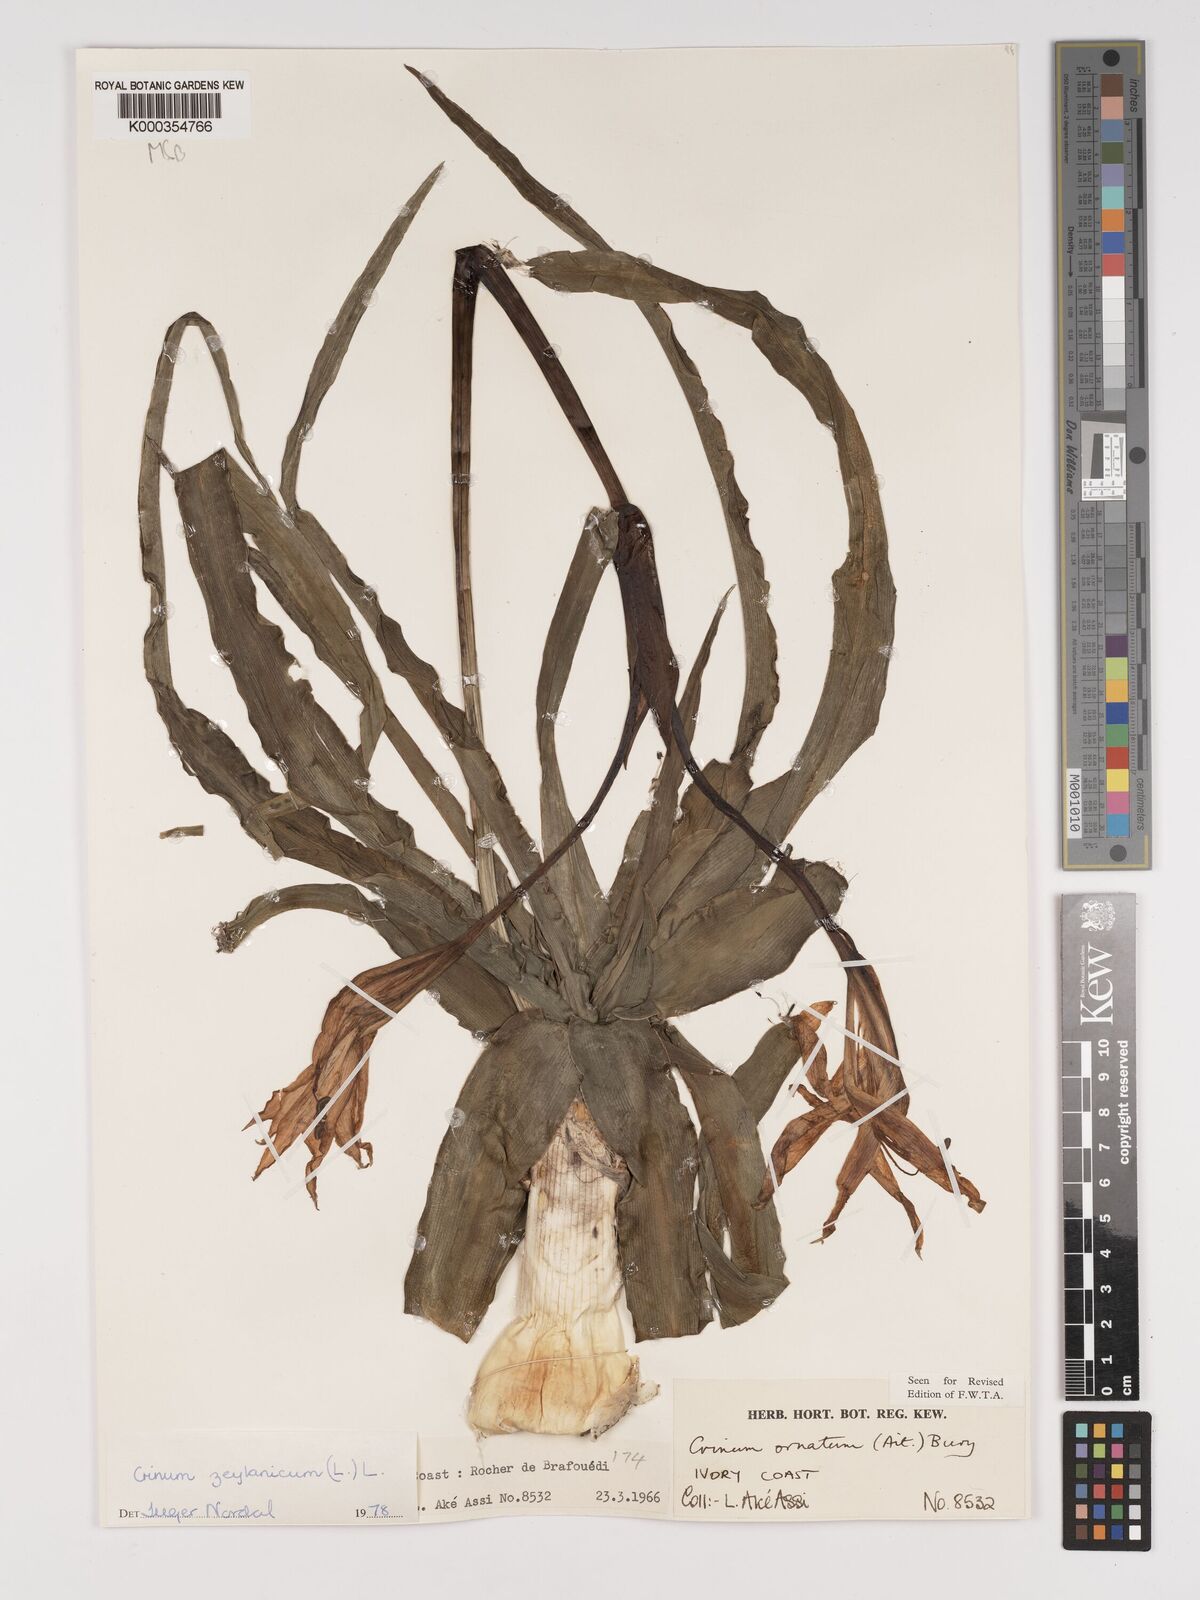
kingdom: Plantae
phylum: Tracheophyta
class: Liliopsida
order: Asparagales
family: Amaryllidaceae
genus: Crinum
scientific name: Crinum zeylanicum
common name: Ceylon swamplily
